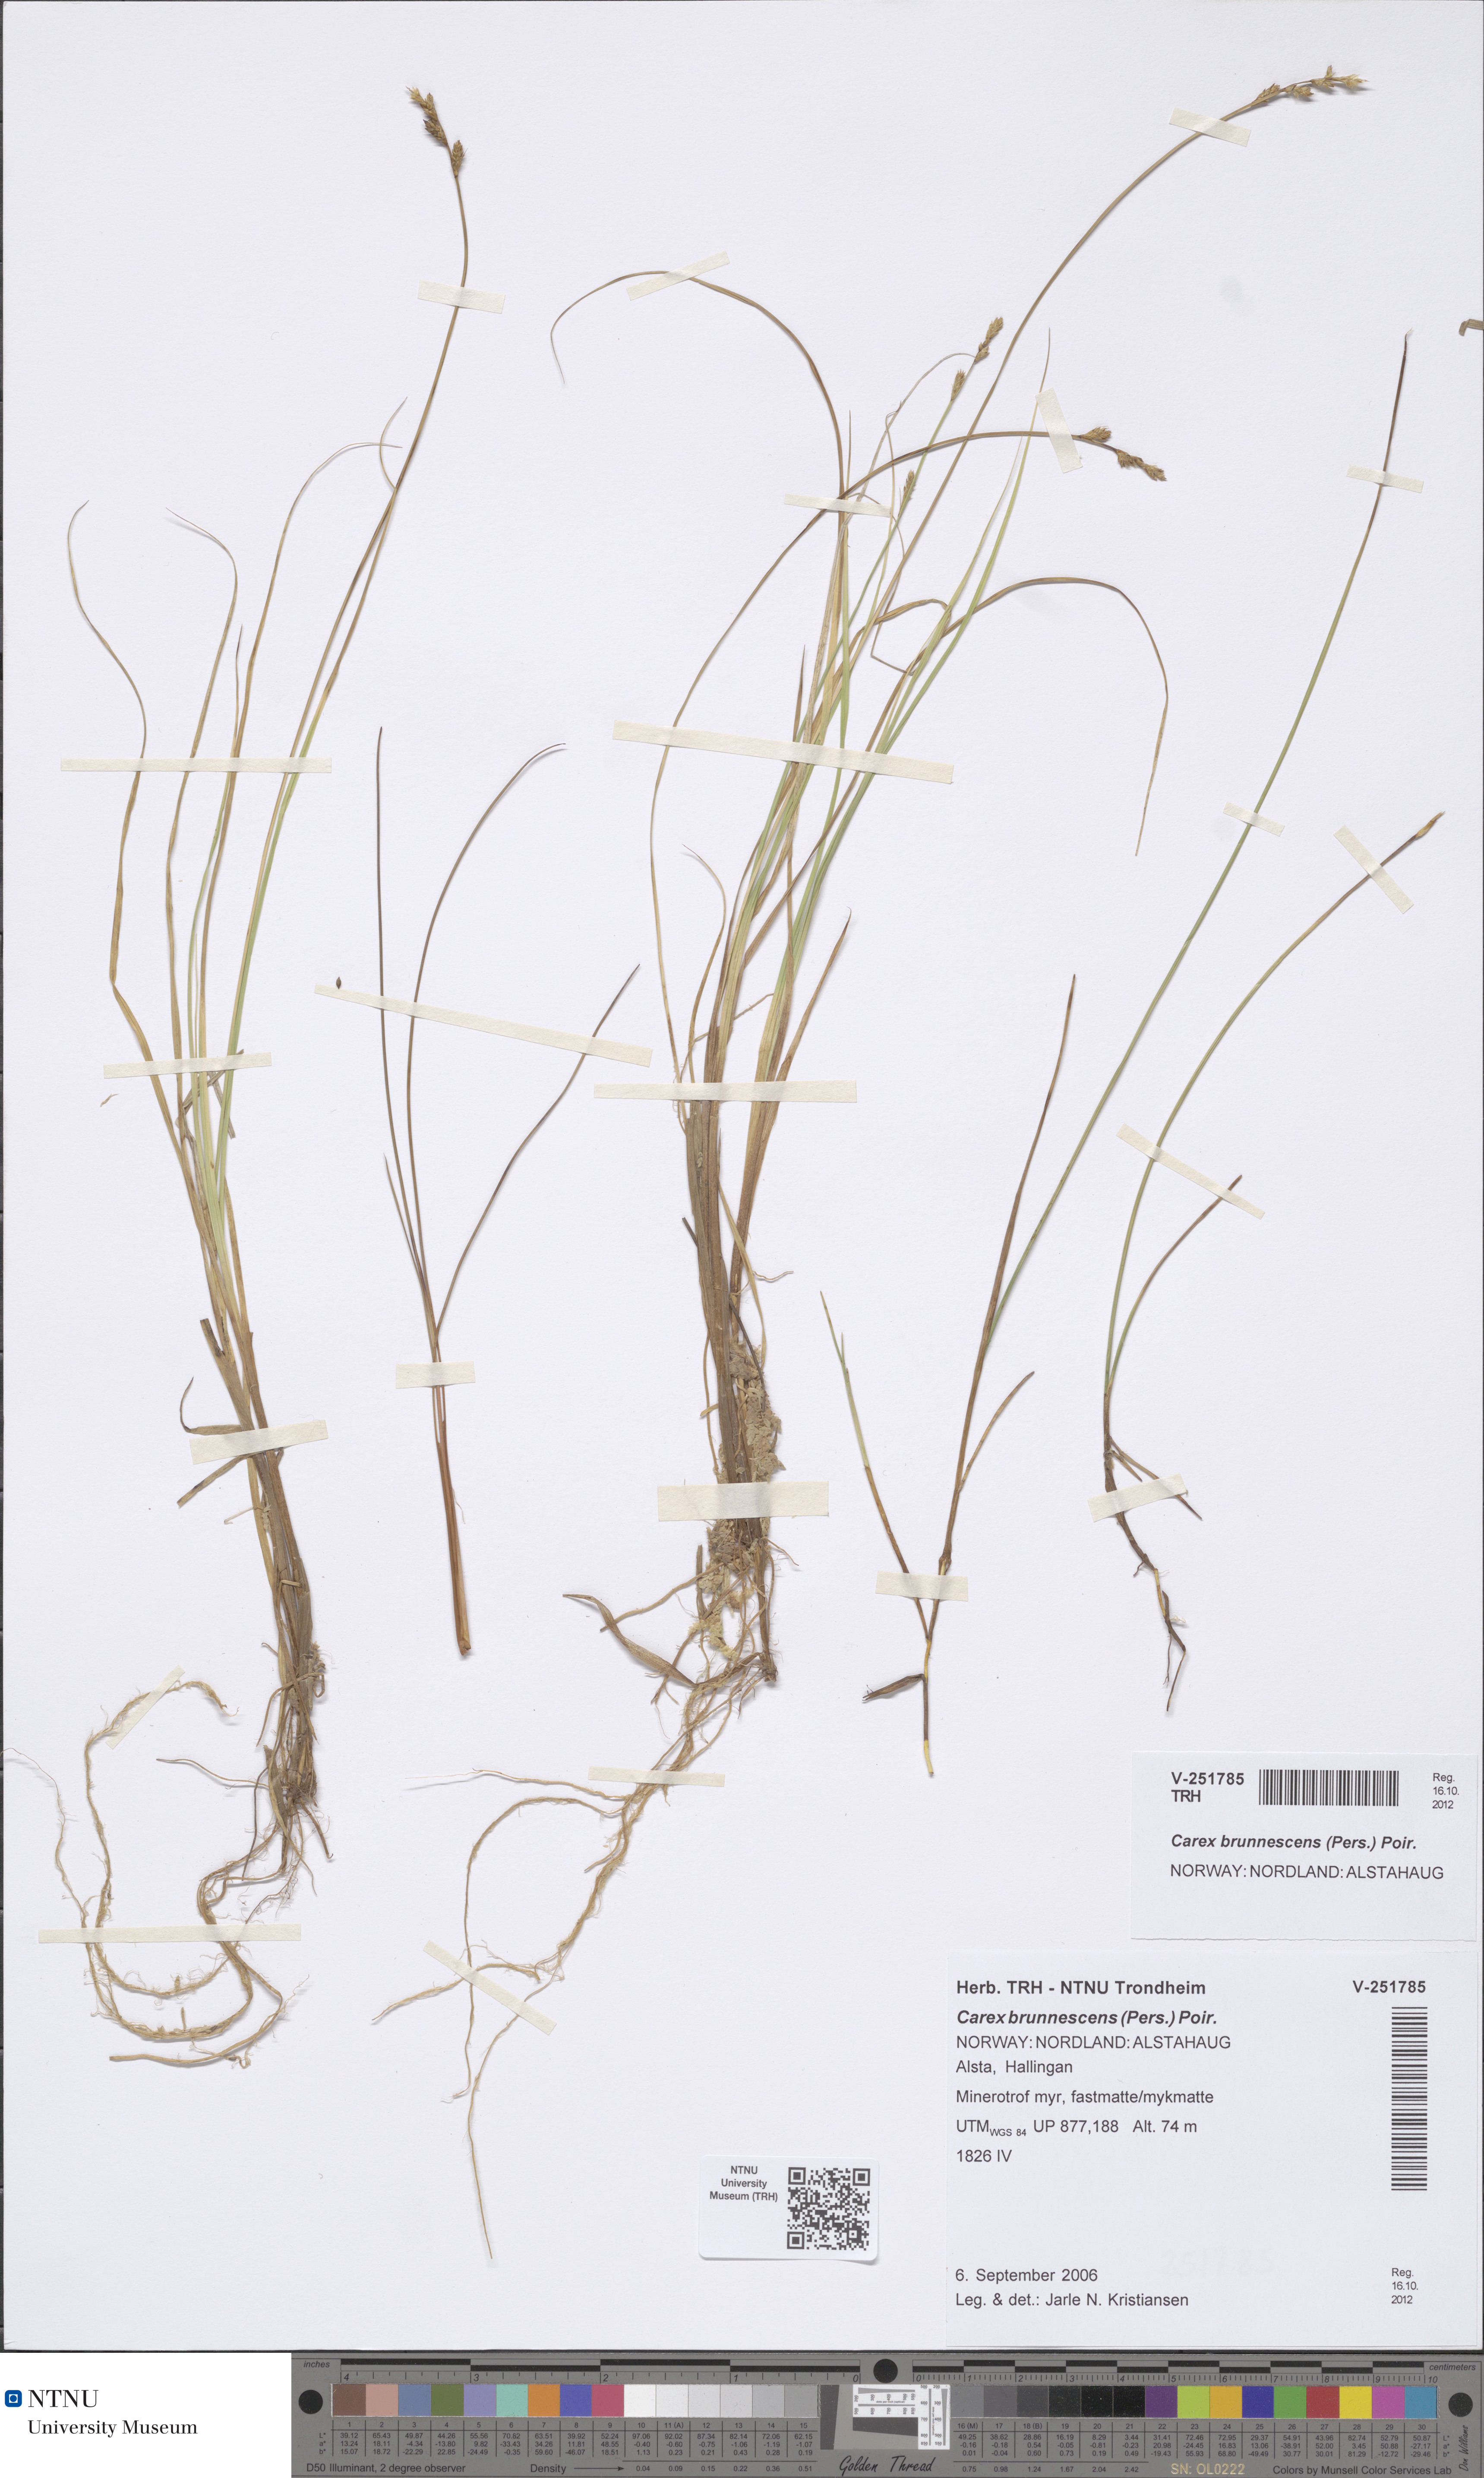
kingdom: Plantae
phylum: Tracheophyta
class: Liliopsida
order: Poales
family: Cyperaceae
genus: Carex
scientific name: Carex canescens
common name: White sedge
